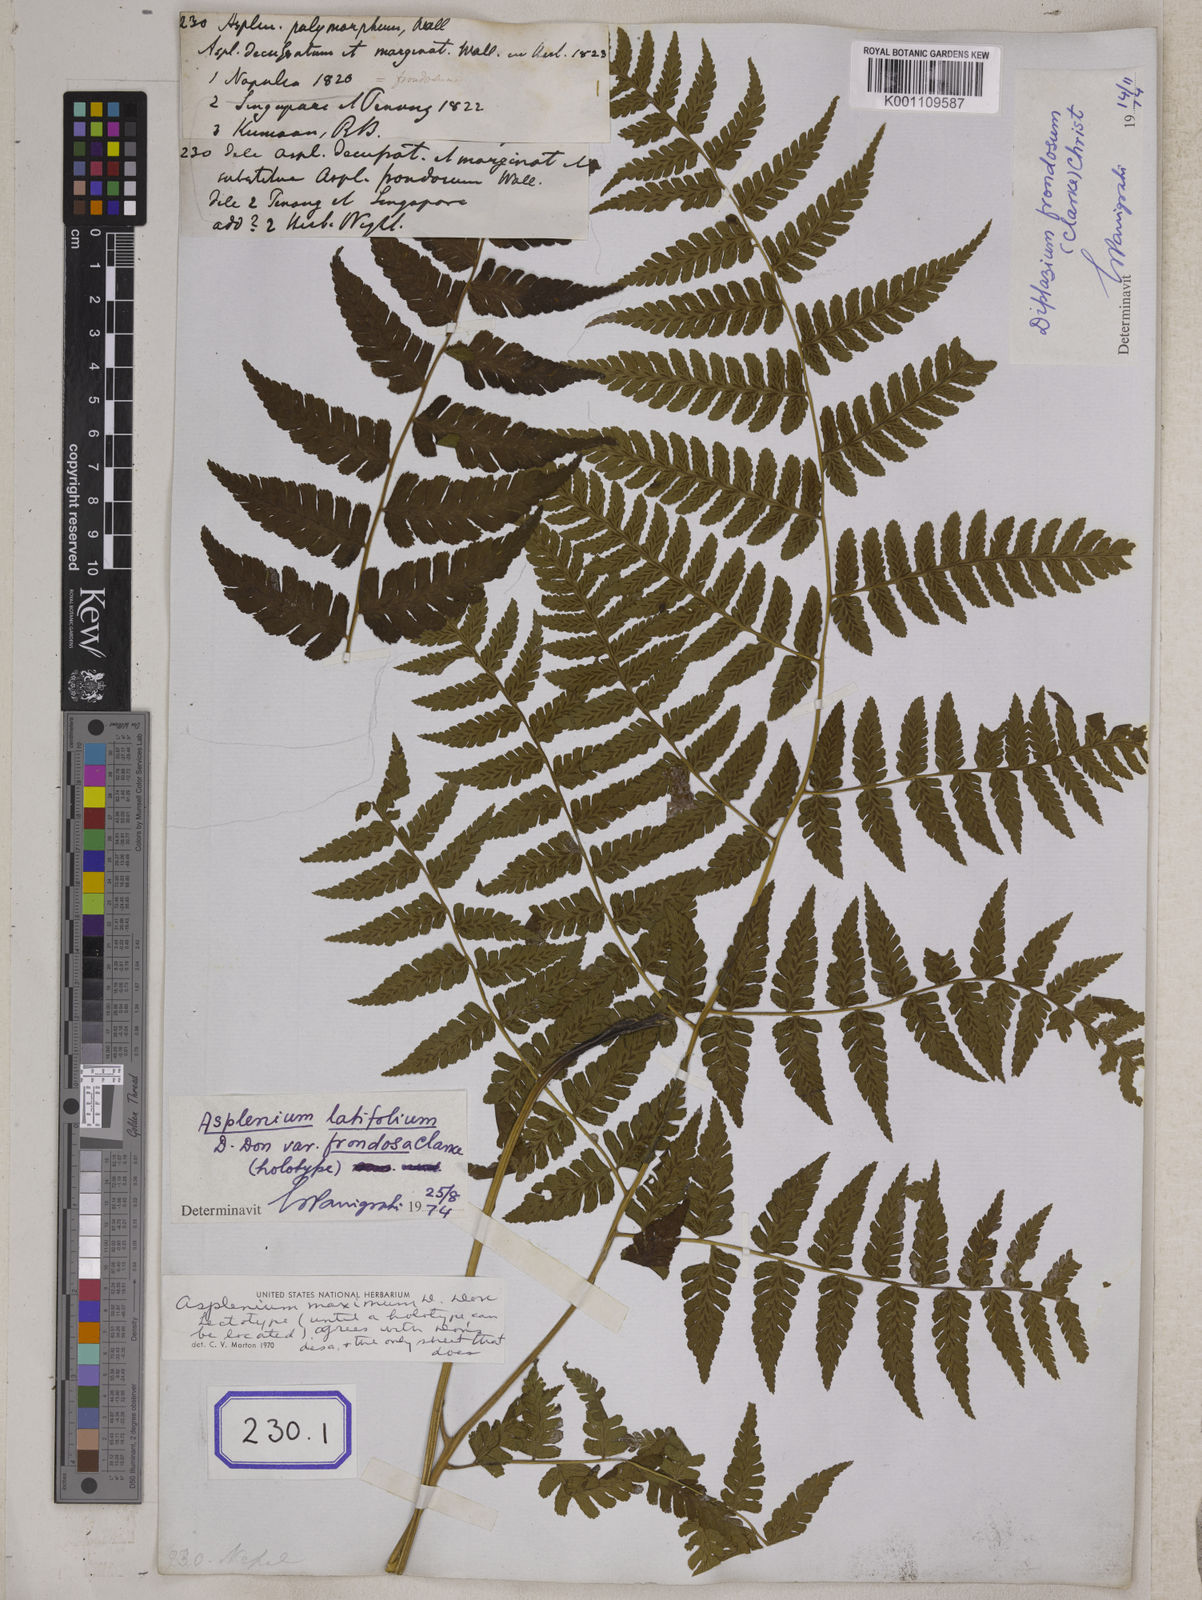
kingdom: Plantae
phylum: Tracheophyta
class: Polypodiopsida
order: Polypodiales
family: Athyriaceae
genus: Diplazium
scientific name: Diplazium maximum
